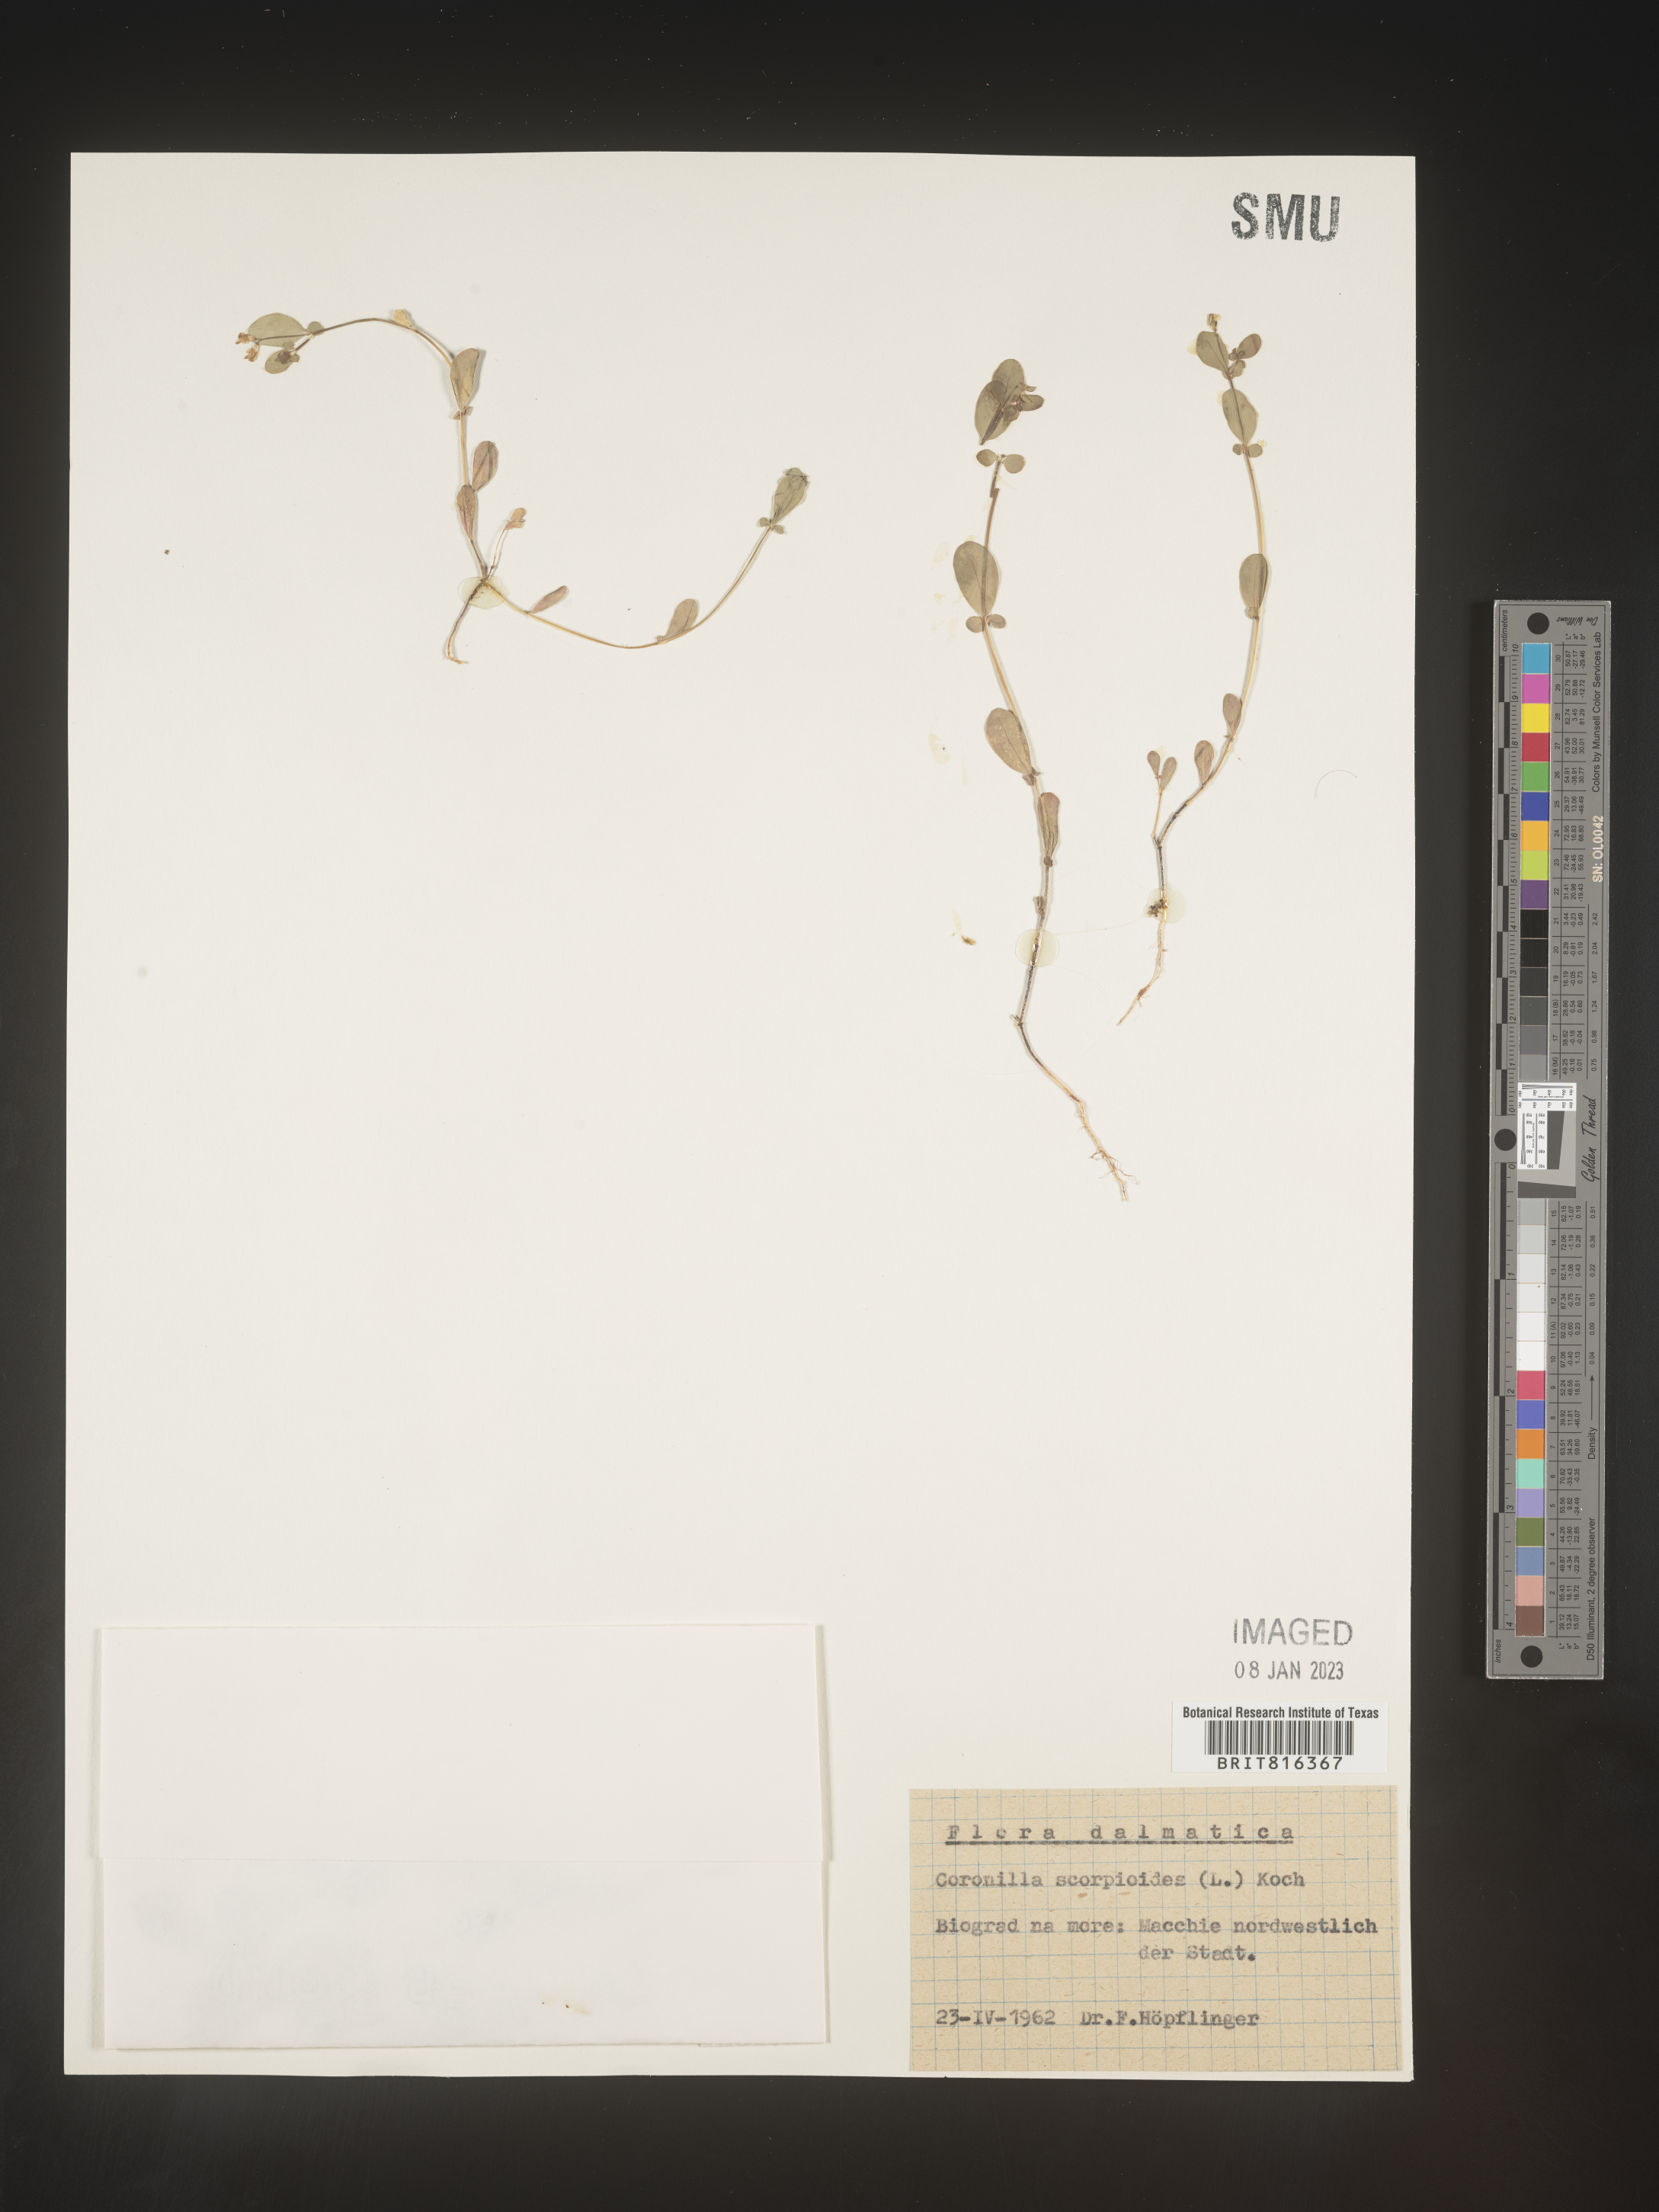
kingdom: Plantae
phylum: Tracheophyta
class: Magnoliopsida
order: Fabales
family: Fabaceae
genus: Coronilla
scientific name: Coronilla
